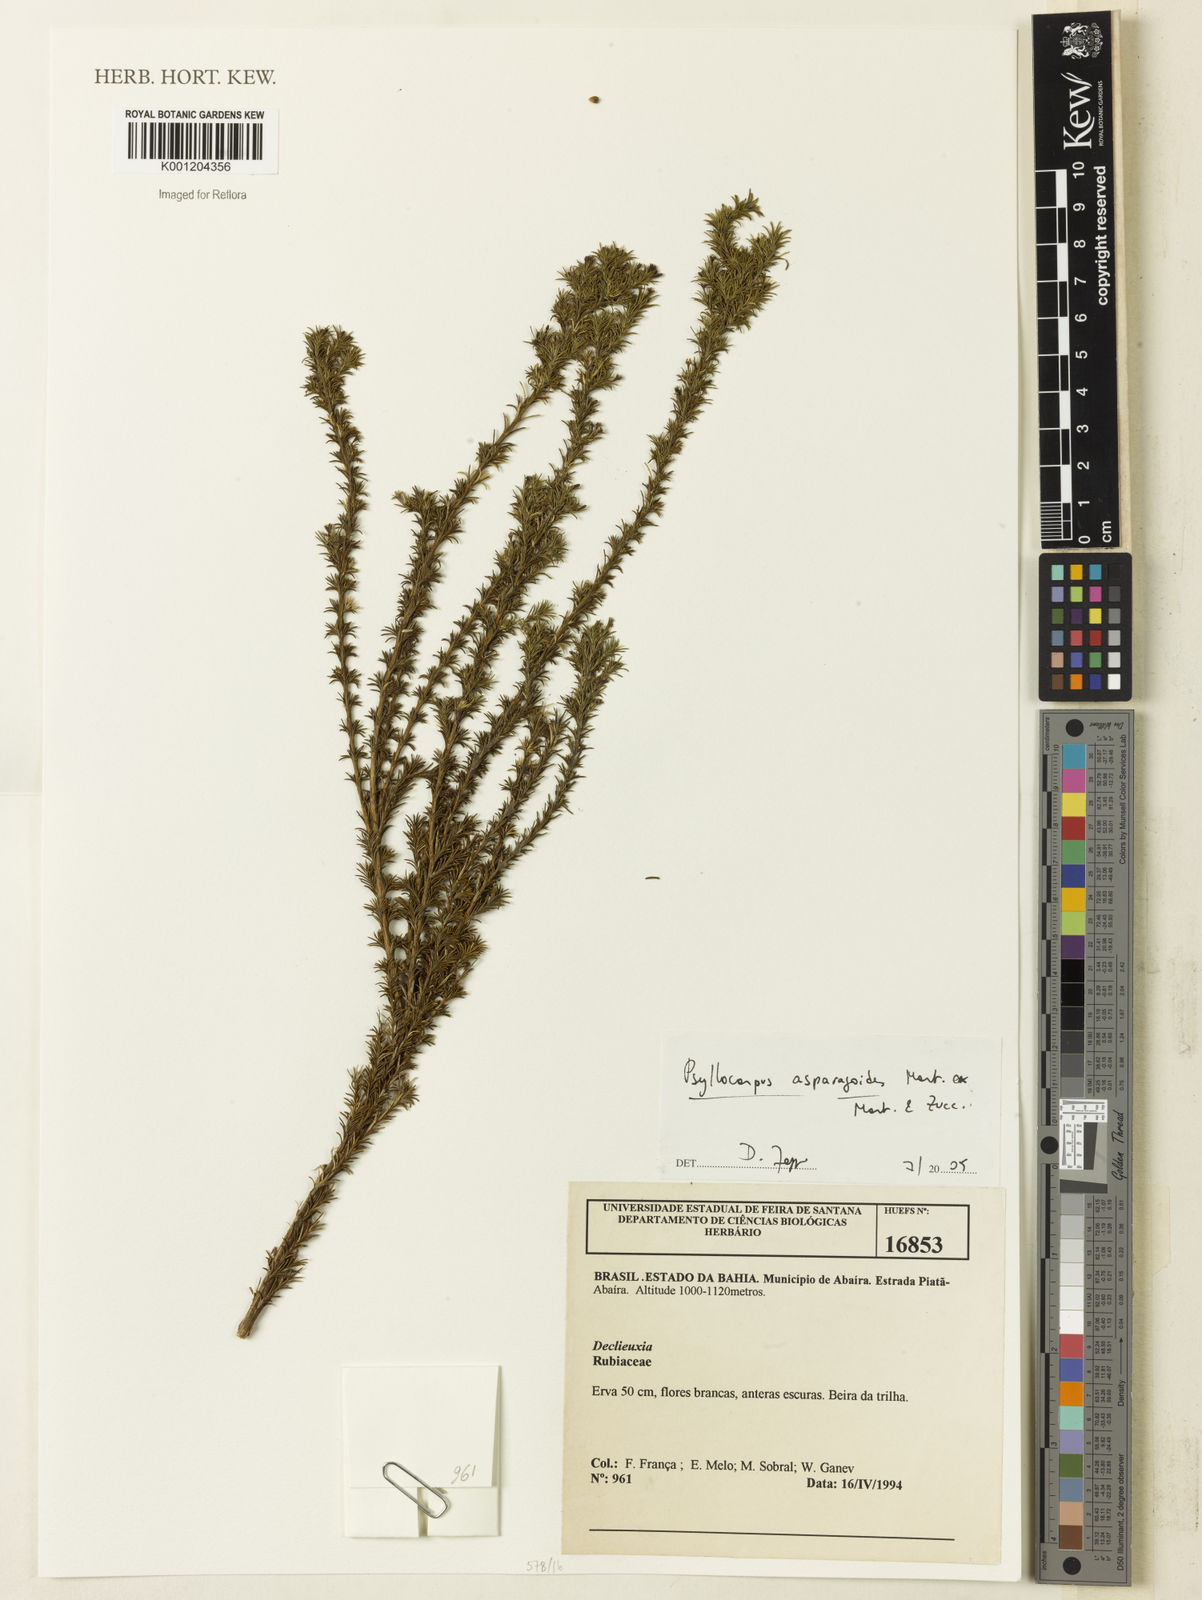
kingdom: Plantae
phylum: Tracheophyta
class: Magnoliopsida
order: Gentianales
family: Rubiaceae
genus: Psyllocarpus
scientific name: Psyllocarpus asparagoides
